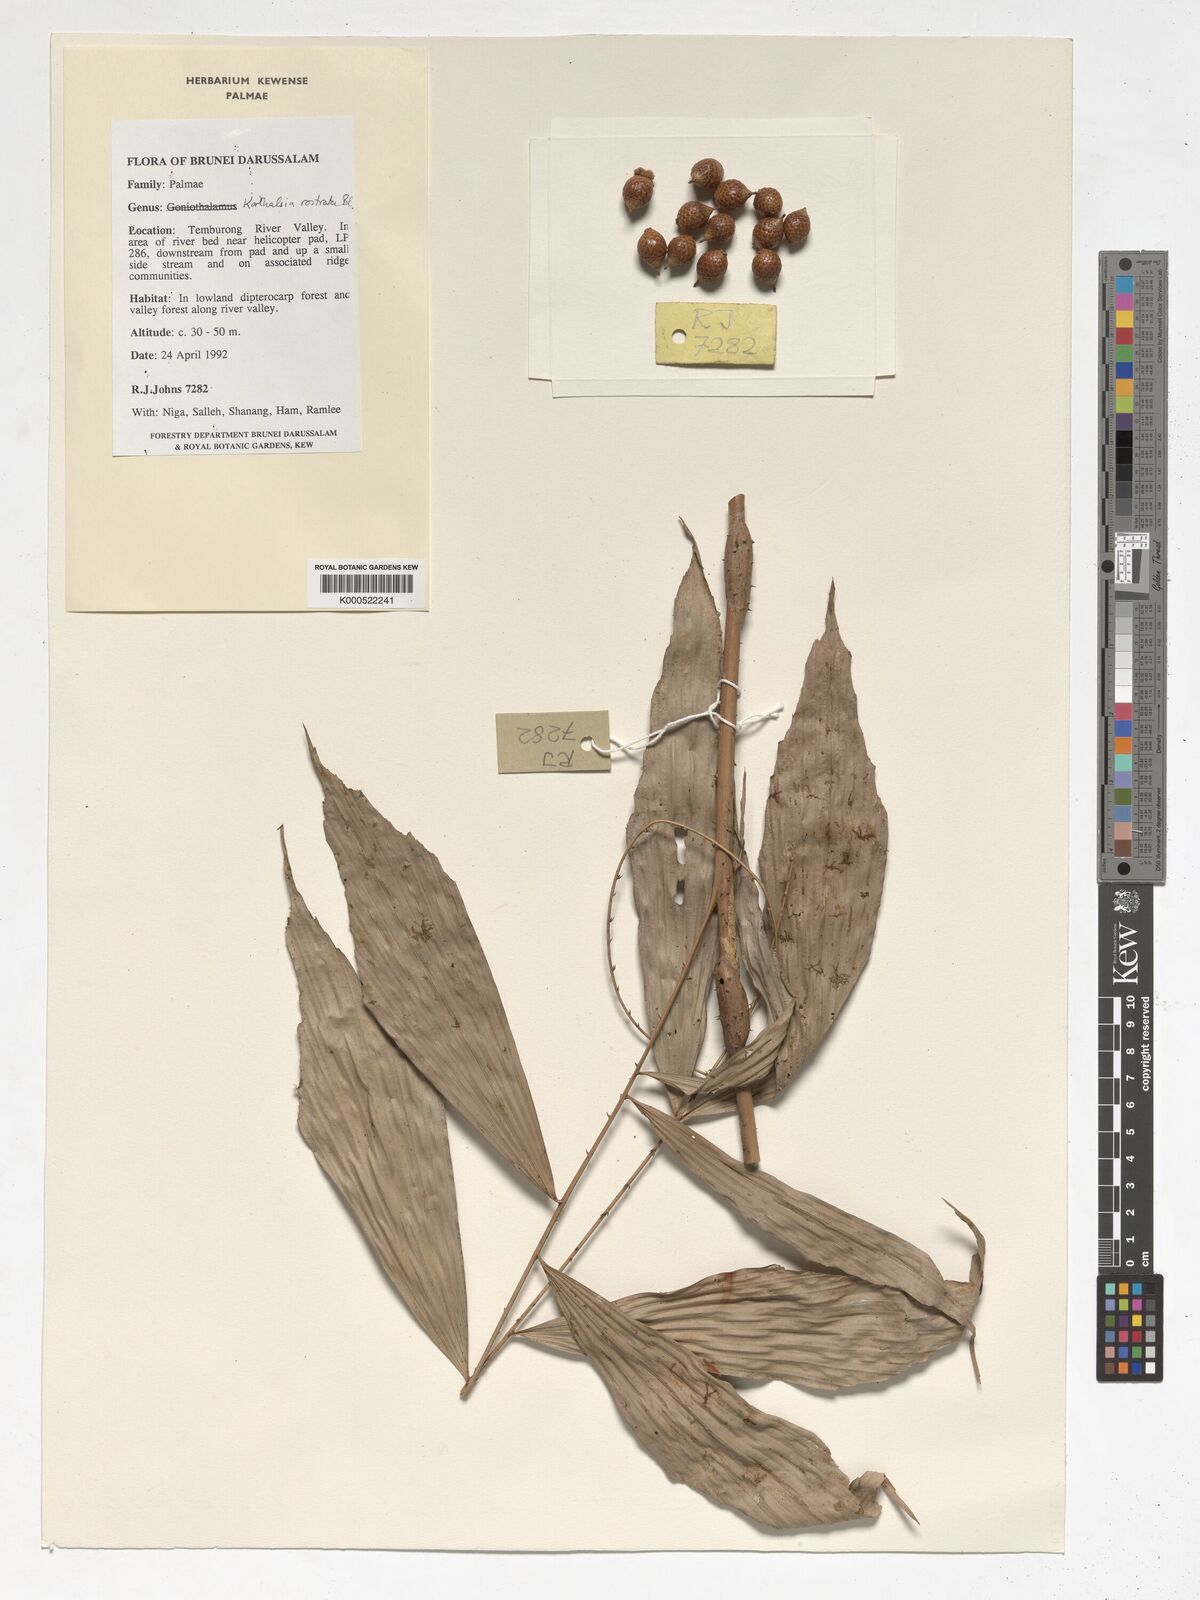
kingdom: Plantae
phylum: Tracheophyta
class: Liliopsida
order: Arecales
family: Arecaceae
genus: Korthalsia
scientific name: Korthalsia rostrata
